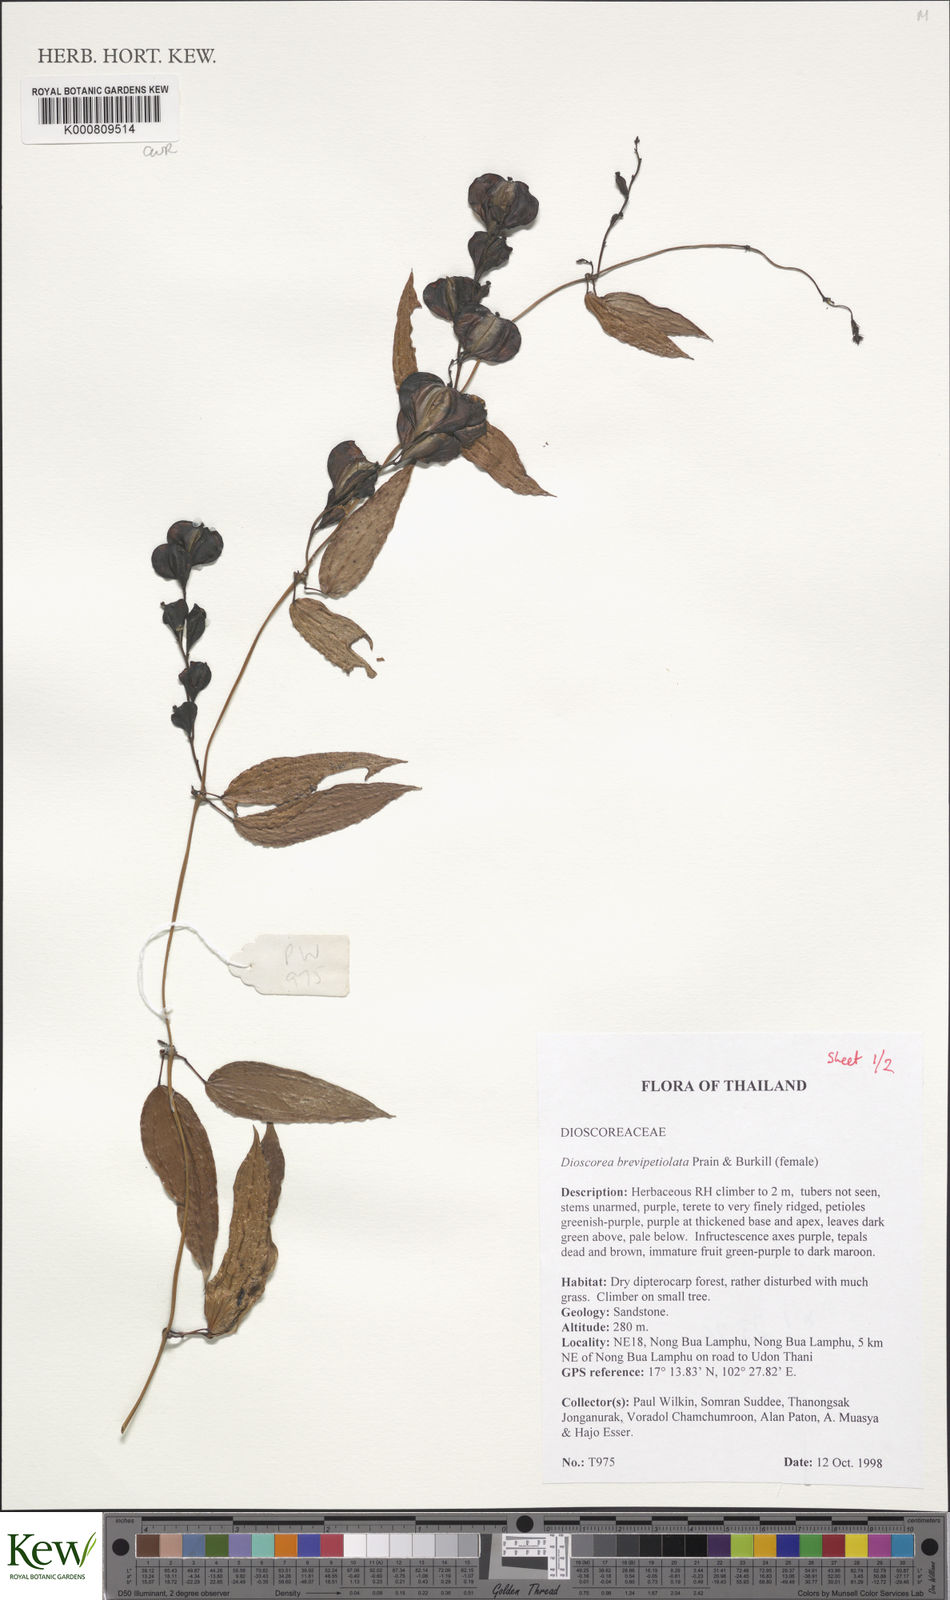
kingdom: Plantae
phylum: Tracheophyta
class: Liliopsida
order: Dioscoreales
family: Dioscoreaceae
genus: Dioscorea
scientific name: Dioscorea brevipetiolata
